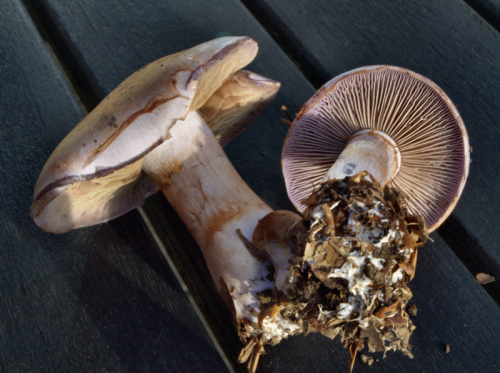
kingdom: Fungi
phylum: Basidiomycota
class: Agaricomycetes
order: Agaricales
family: Cortinariaceae
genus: Cortinarius
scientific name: Cortinarius largus
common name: violetrandet slørhat
